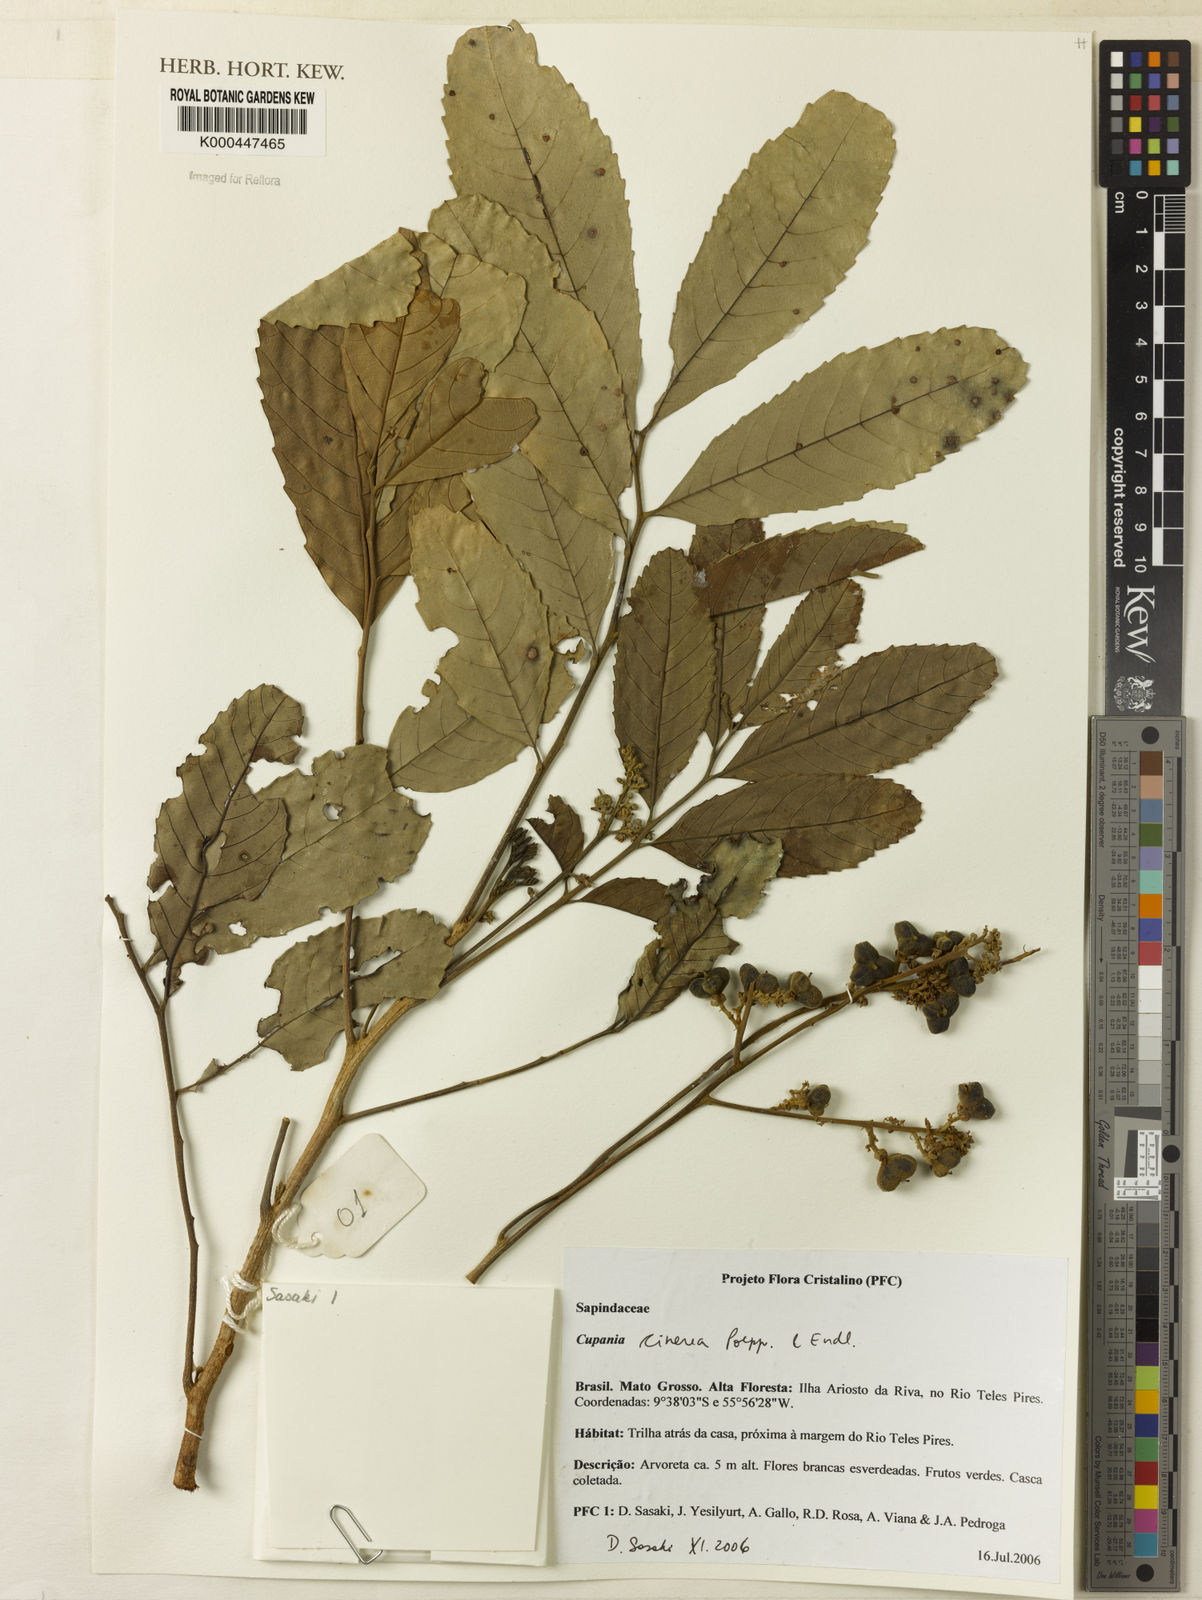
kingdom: Plantae
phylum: Tracheophyta
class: Magnoliopsida
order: Sapindales
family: Sapindaceae
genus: Cupania
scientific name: Cupania cinerea
